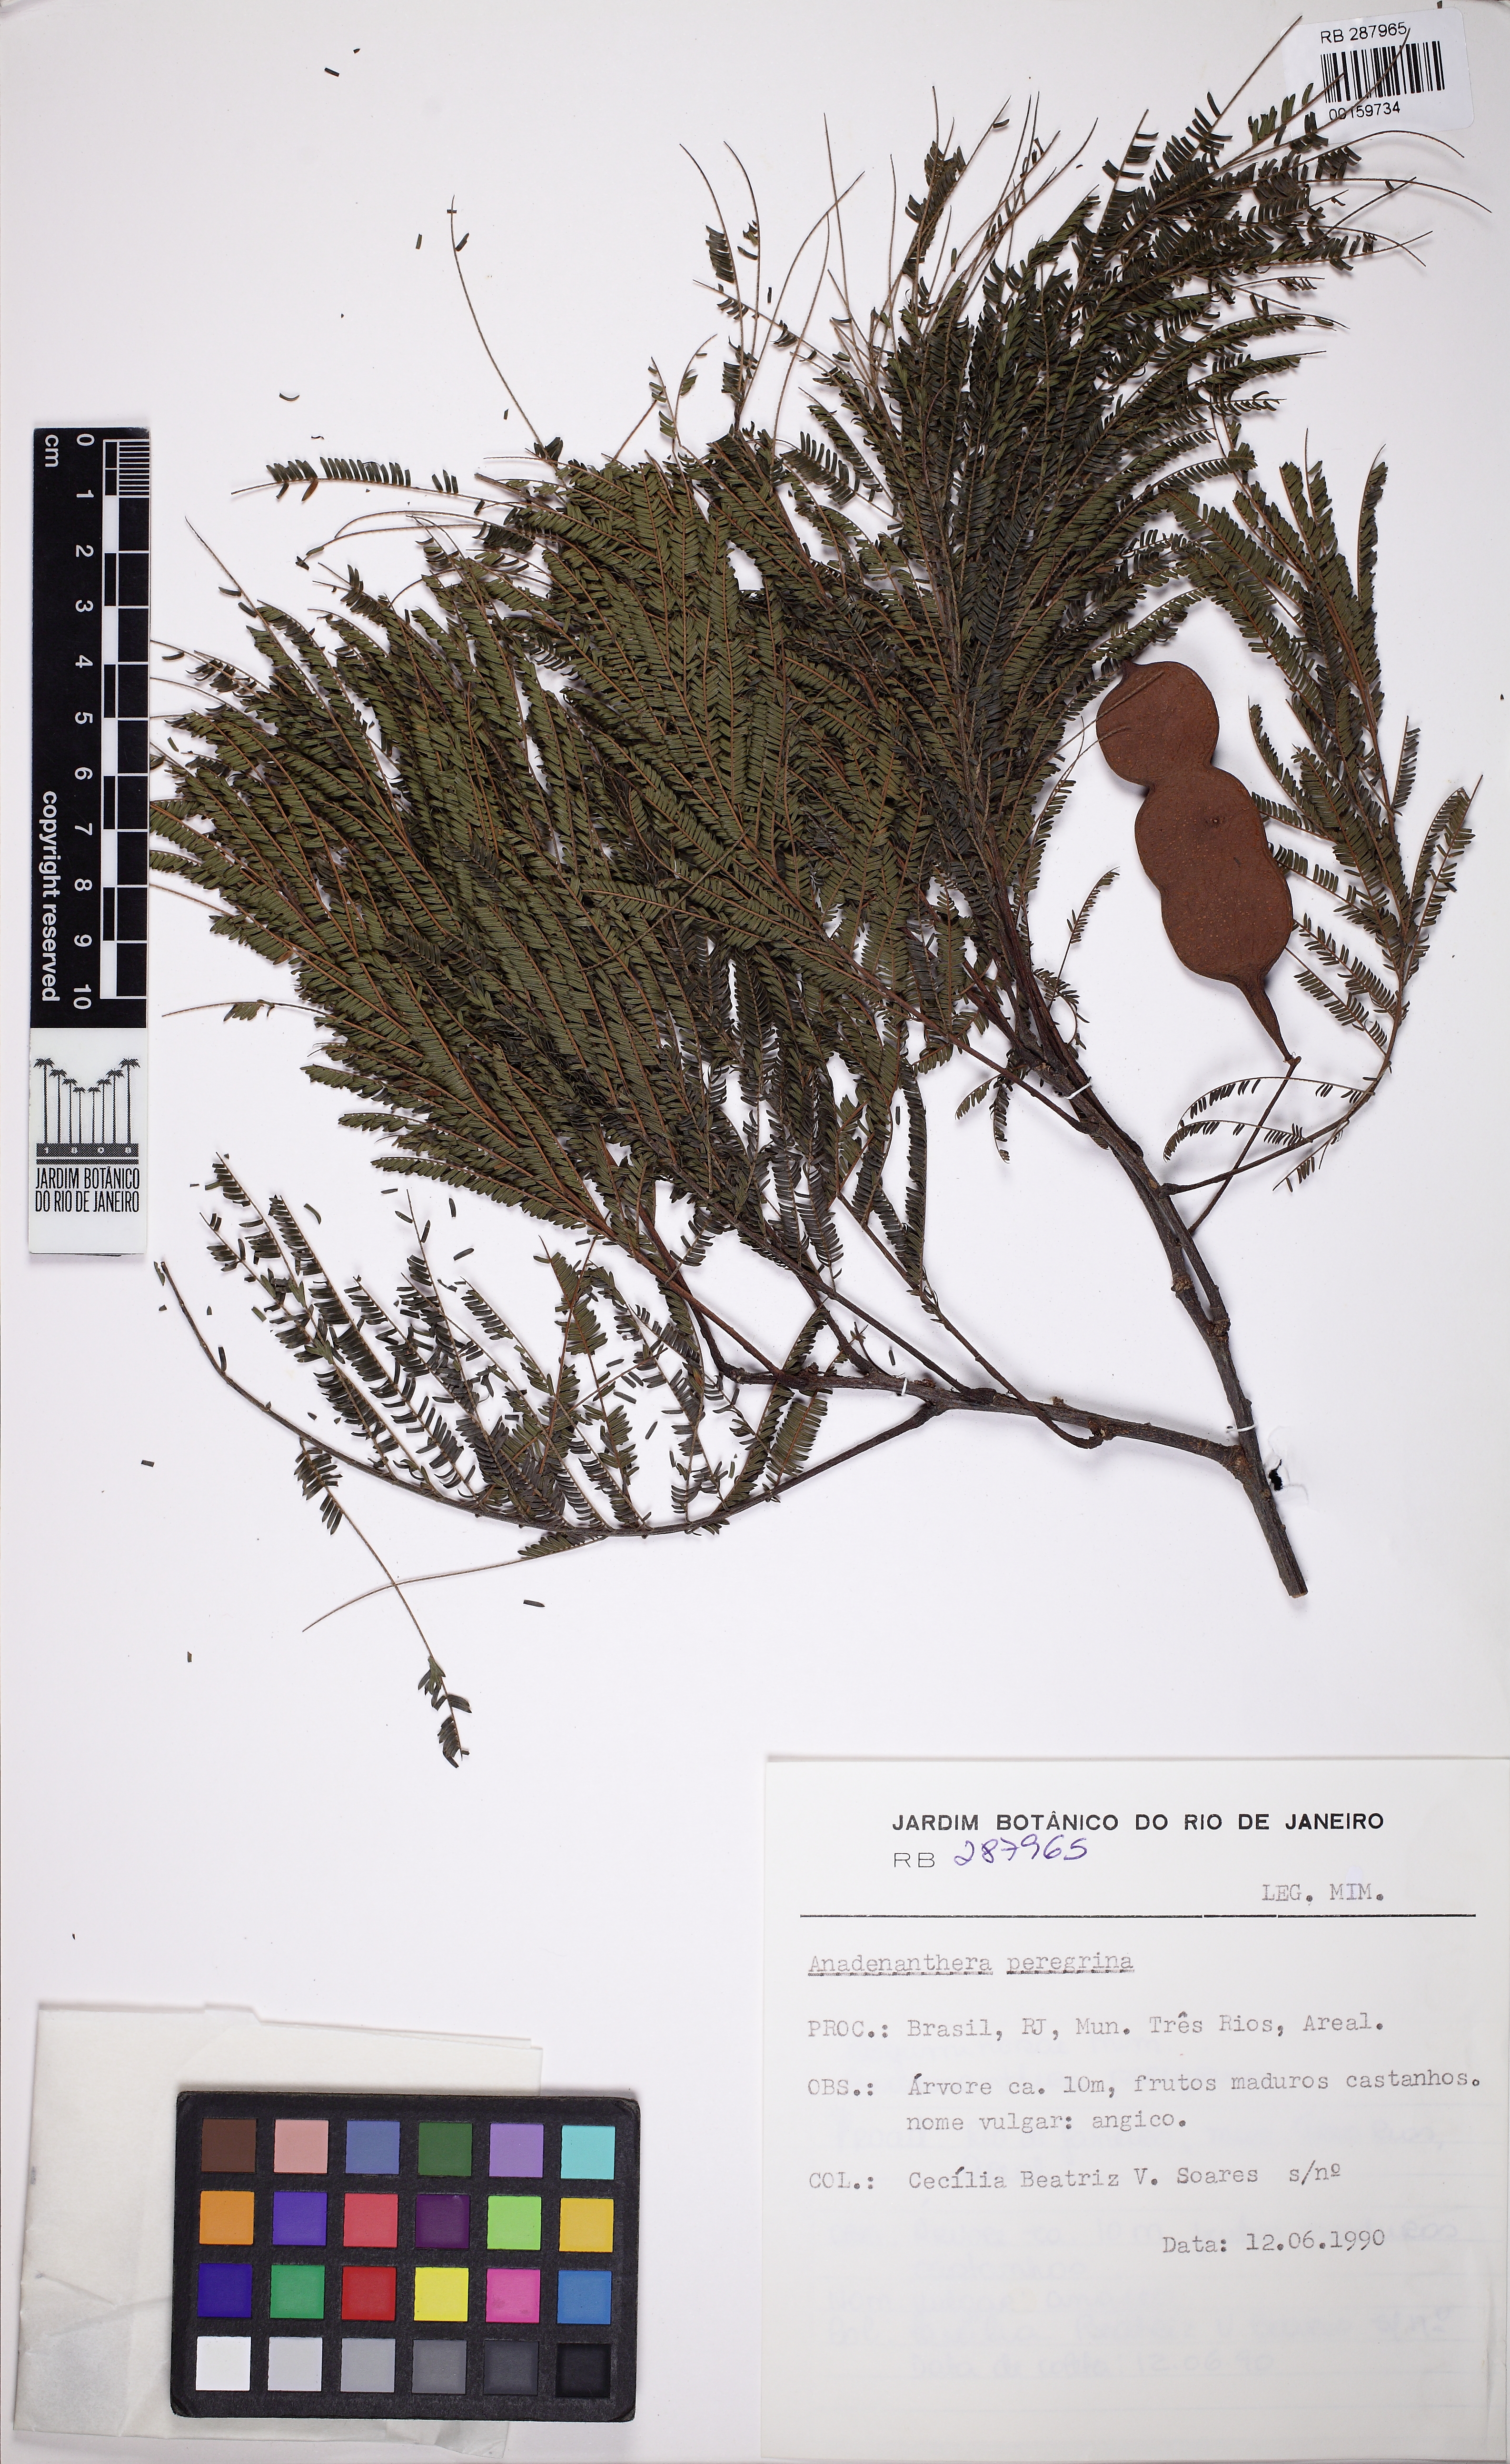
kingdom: Plantae
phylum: Tracheophyta
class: Magnoliopsida
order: Fabales
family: Fabaceae
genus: Anadenanthera
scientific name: Anadenanthera peregrina
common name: Cohoba
